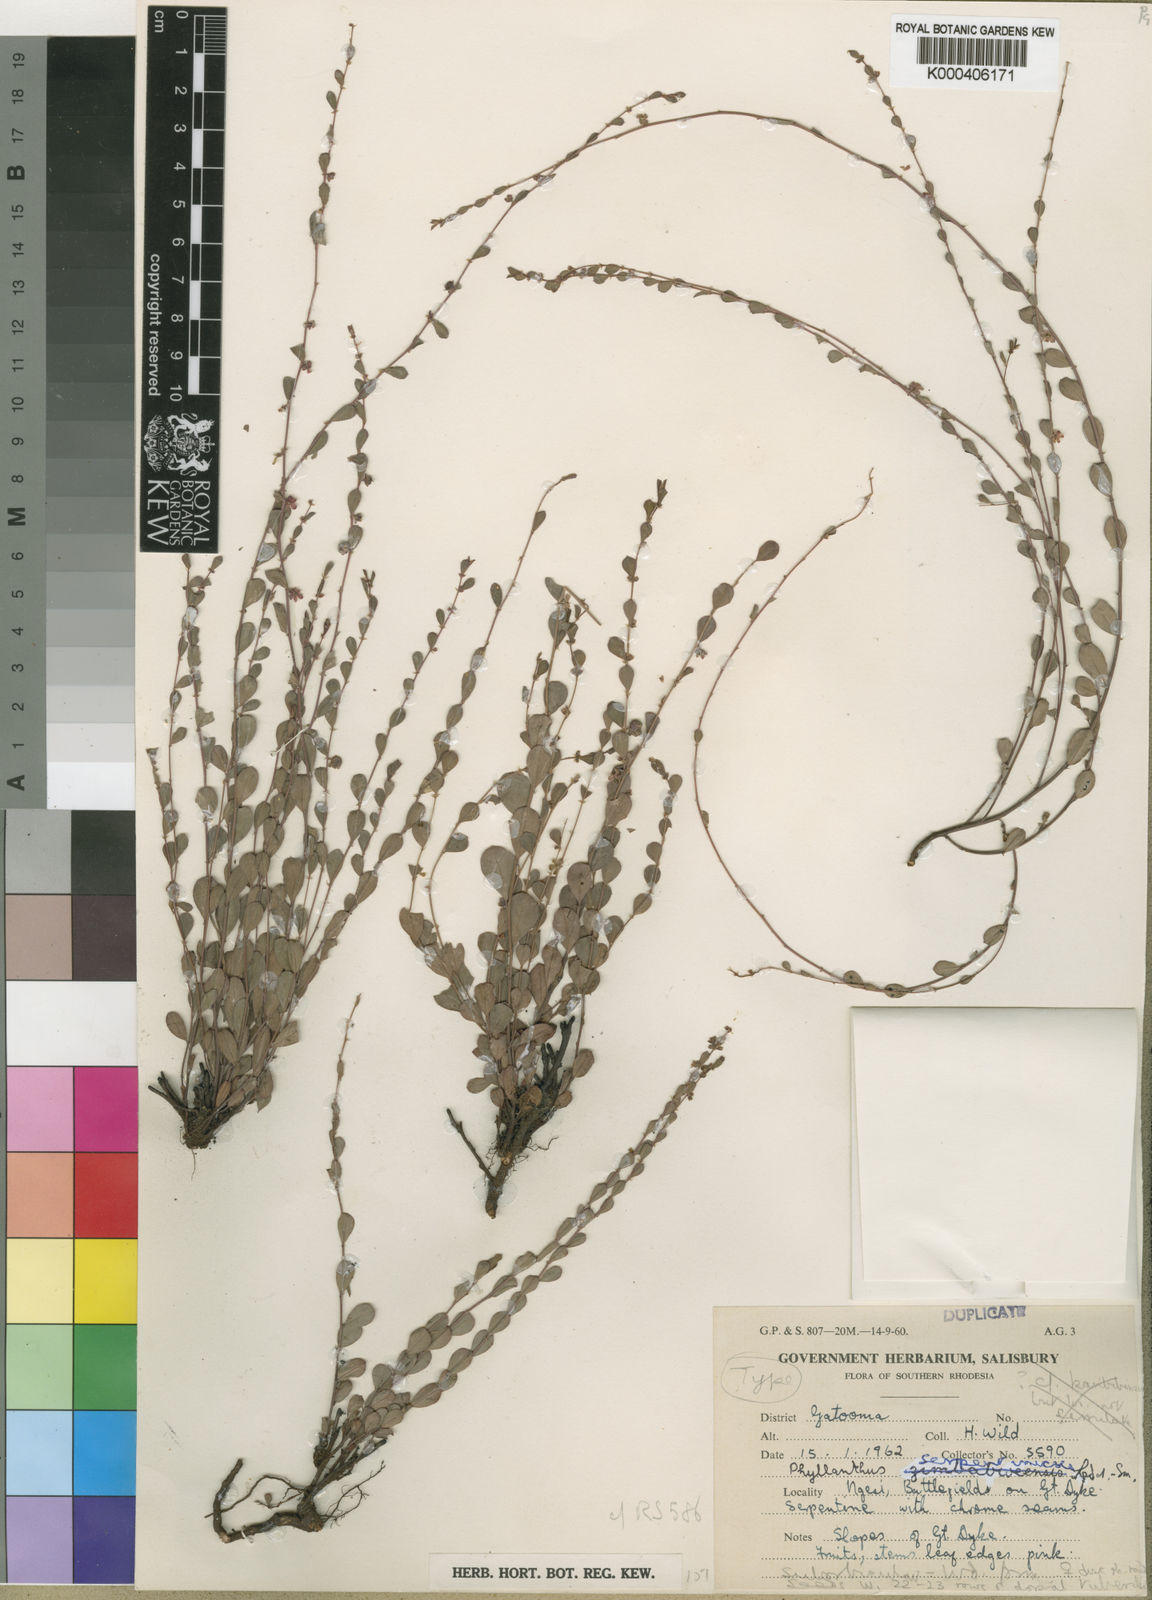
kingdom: Plantae
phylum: Tracheophyta
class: Magnoliopsida
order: Malpighiales
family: Phyllanthaceae
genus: Phyllanthus
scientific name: Phyllanthus serpentinicola
